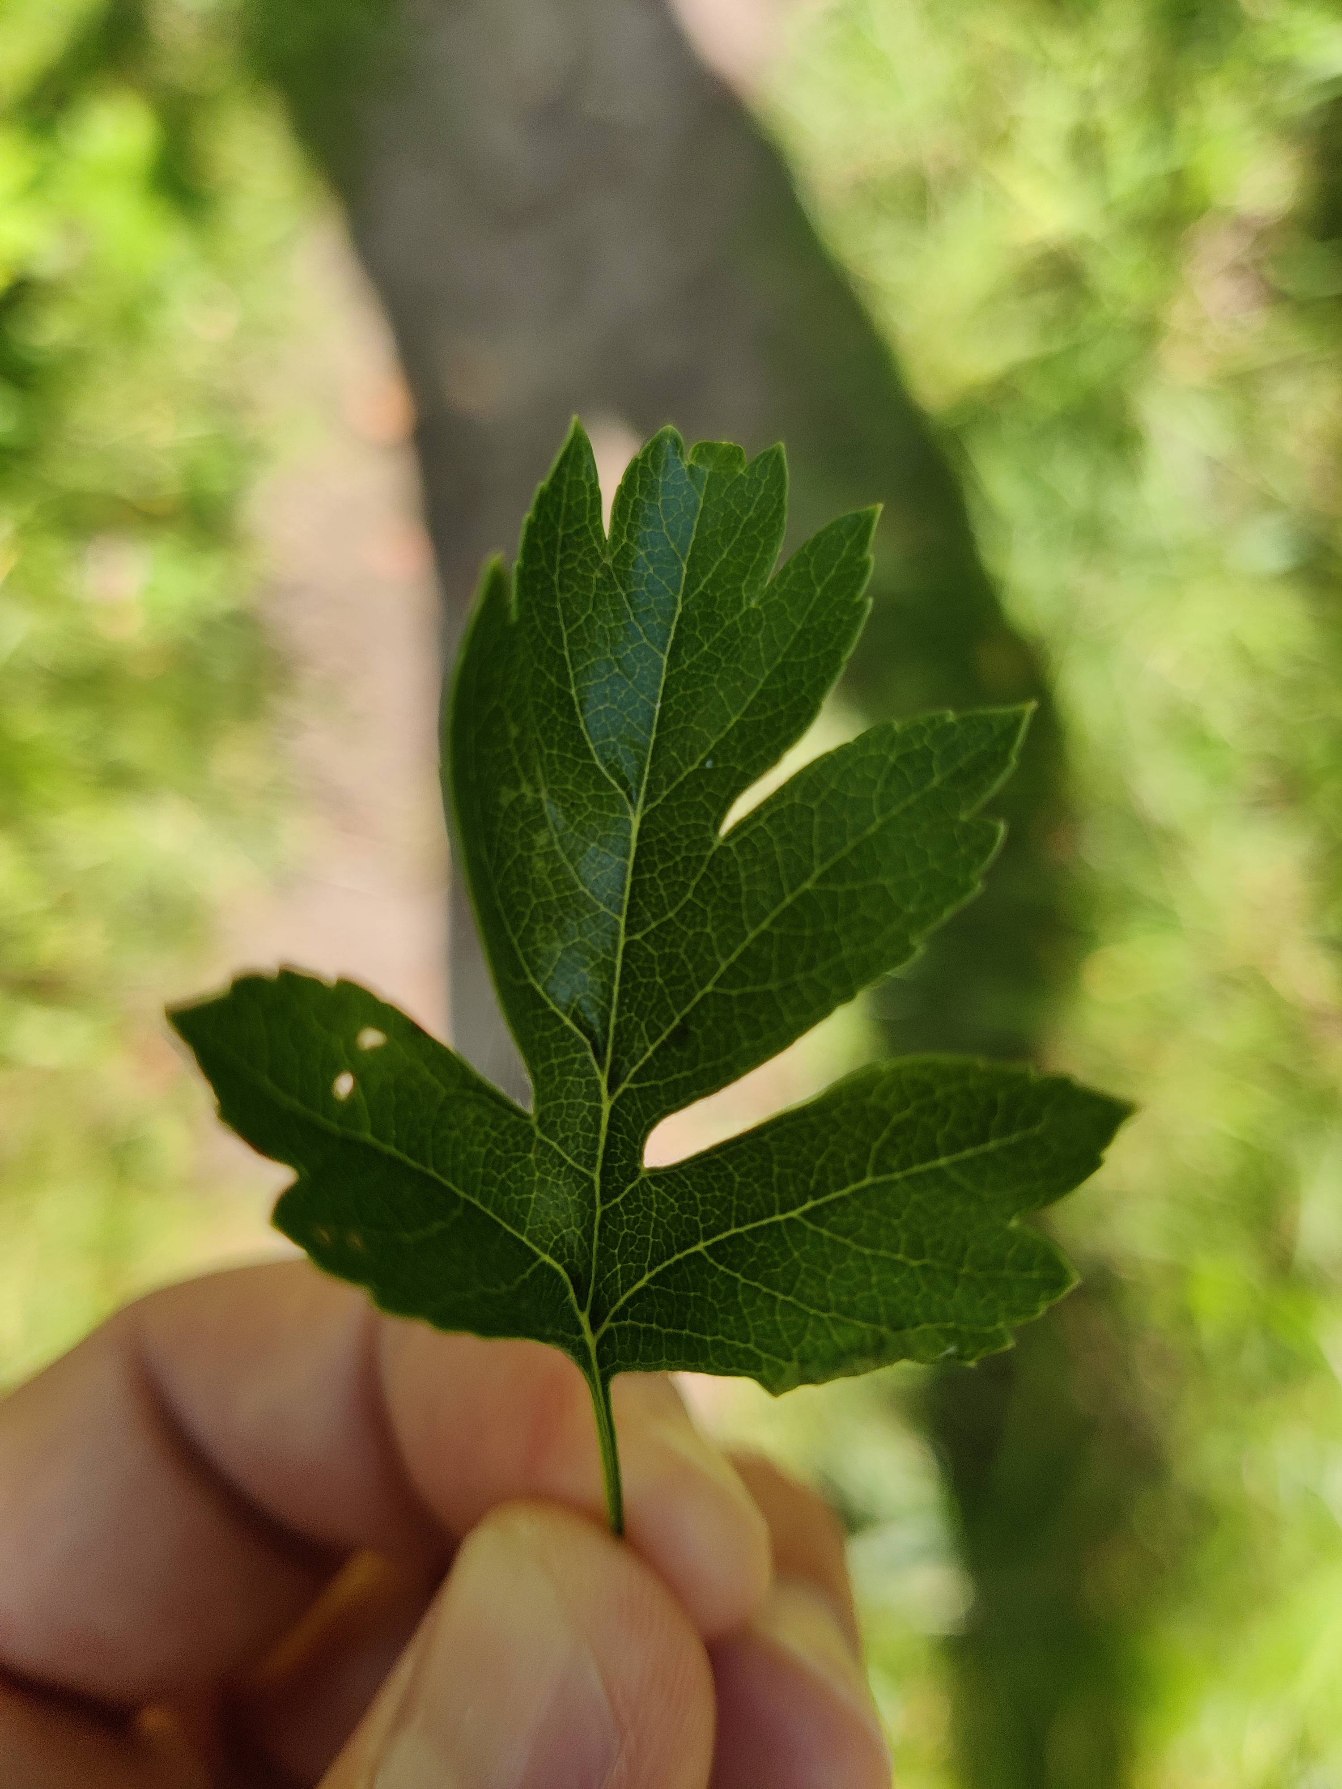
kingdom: Plantae
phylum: Tracheophyta
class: Magnoliopsida
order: Rosales
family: Rosaceae
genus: Crataegus
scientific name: Crataegus monogyna
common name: Engriflet hvidtjørn
